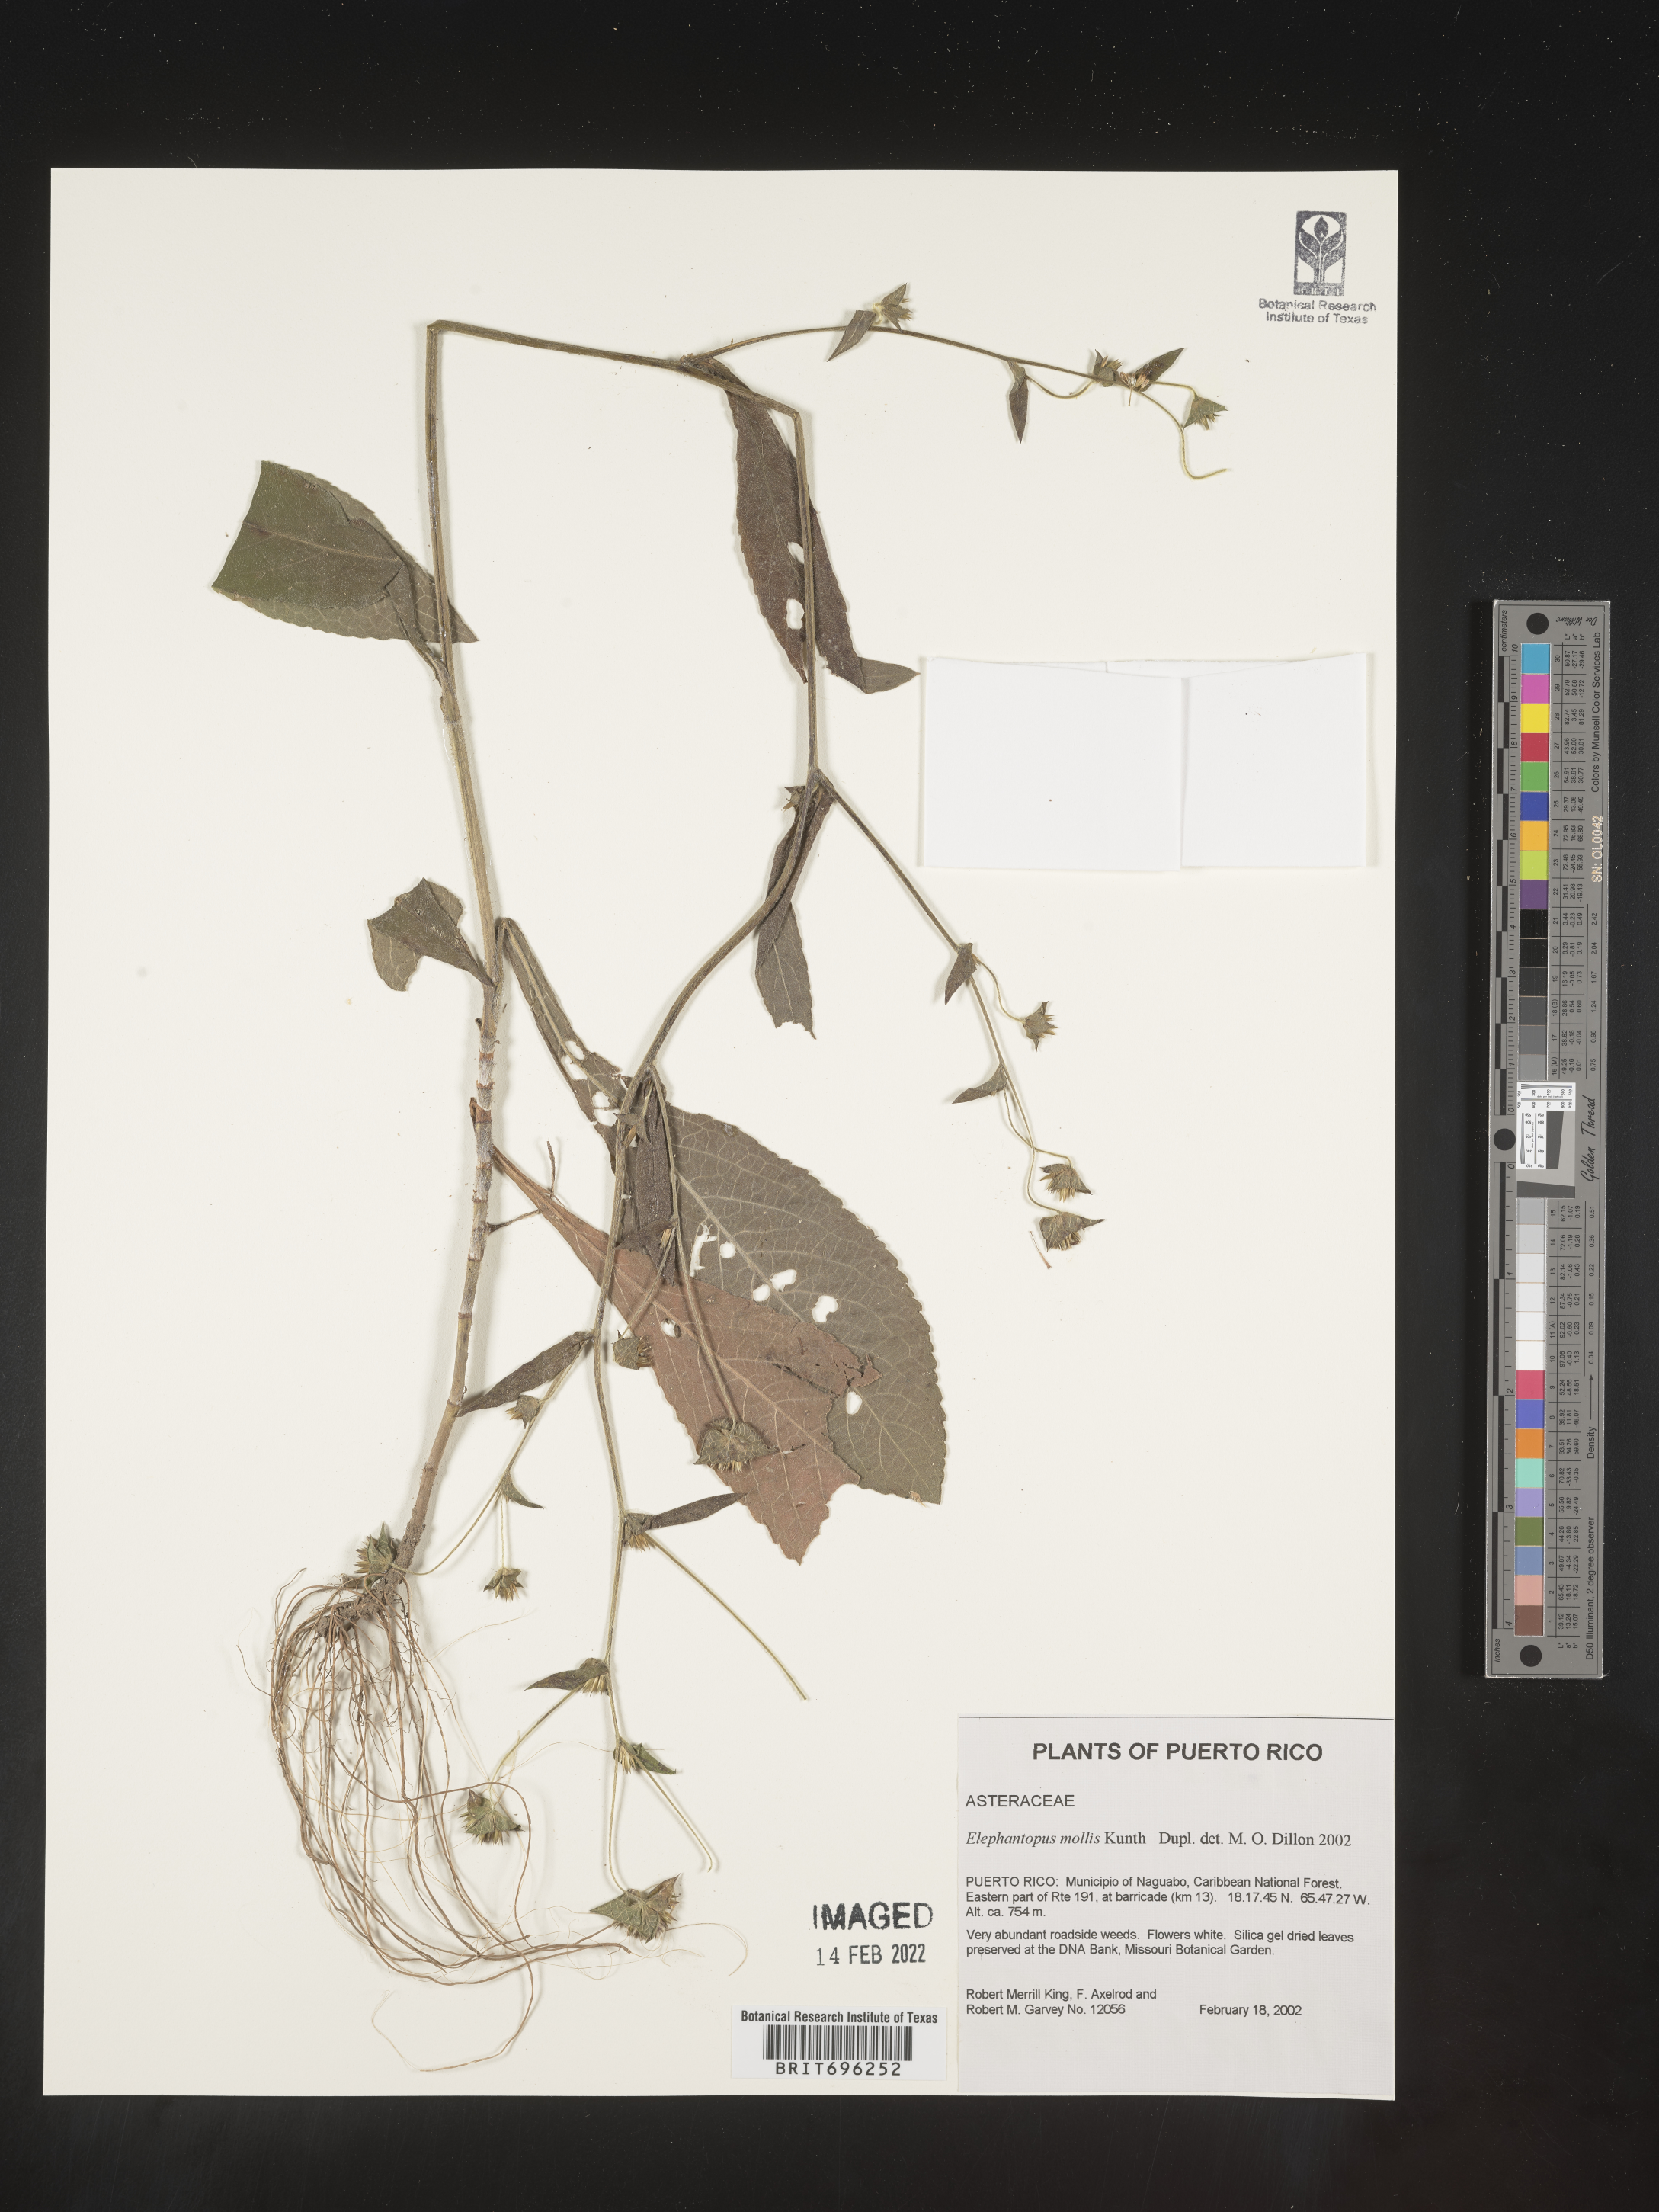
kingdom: Plantae
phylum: Tracheophyta
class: Magnoliopsida
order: Asterales
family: Asteraceae
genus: Elephantopus
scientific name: Elephantopus
